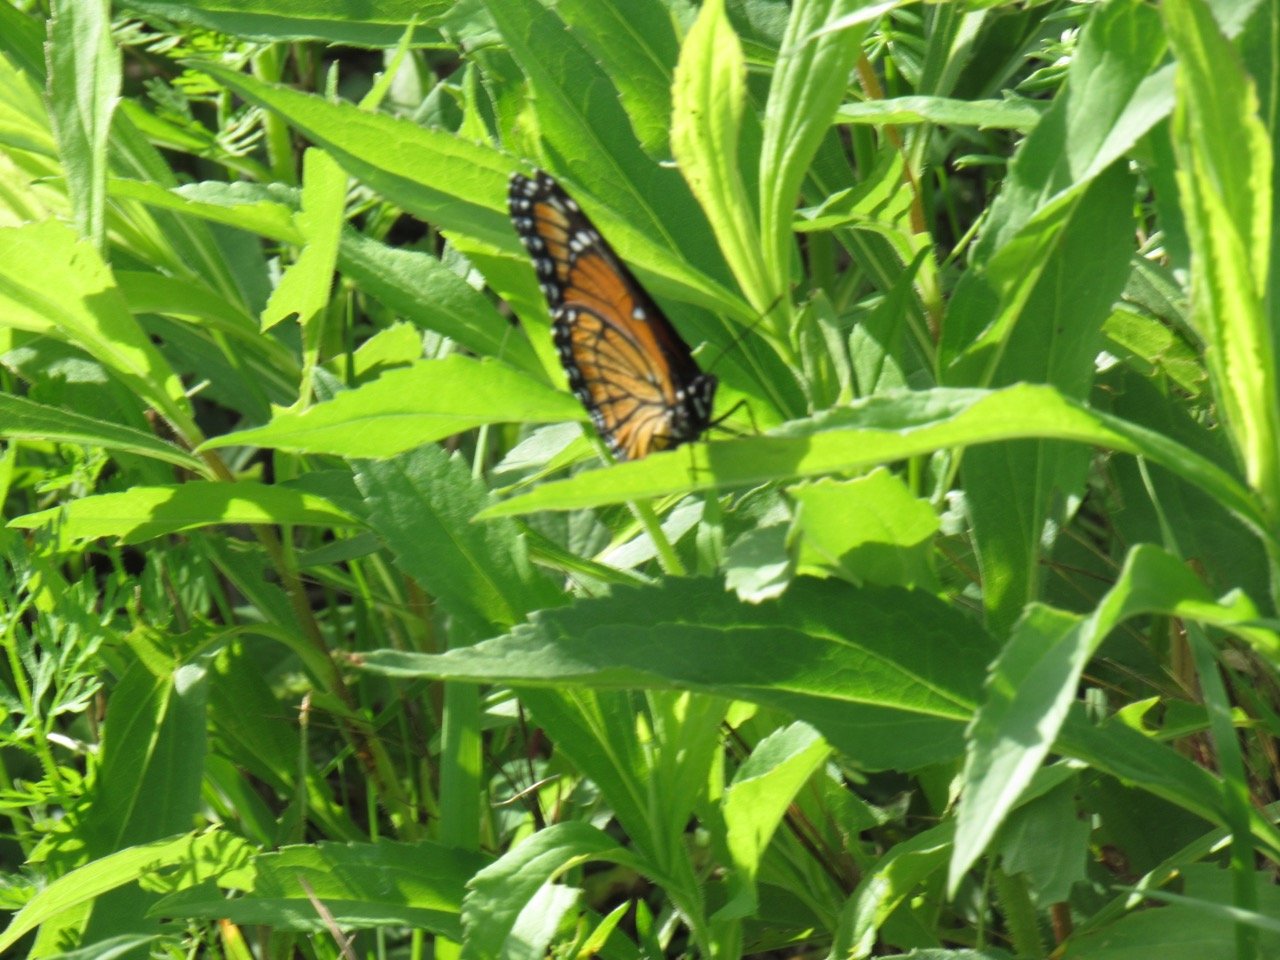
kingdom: Animalia
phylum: Arthropoda
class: Insecta
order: Lepidoptera
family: Nymphalidae
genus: Limenitis
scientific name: Limenitis archippus
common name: Viceroy
